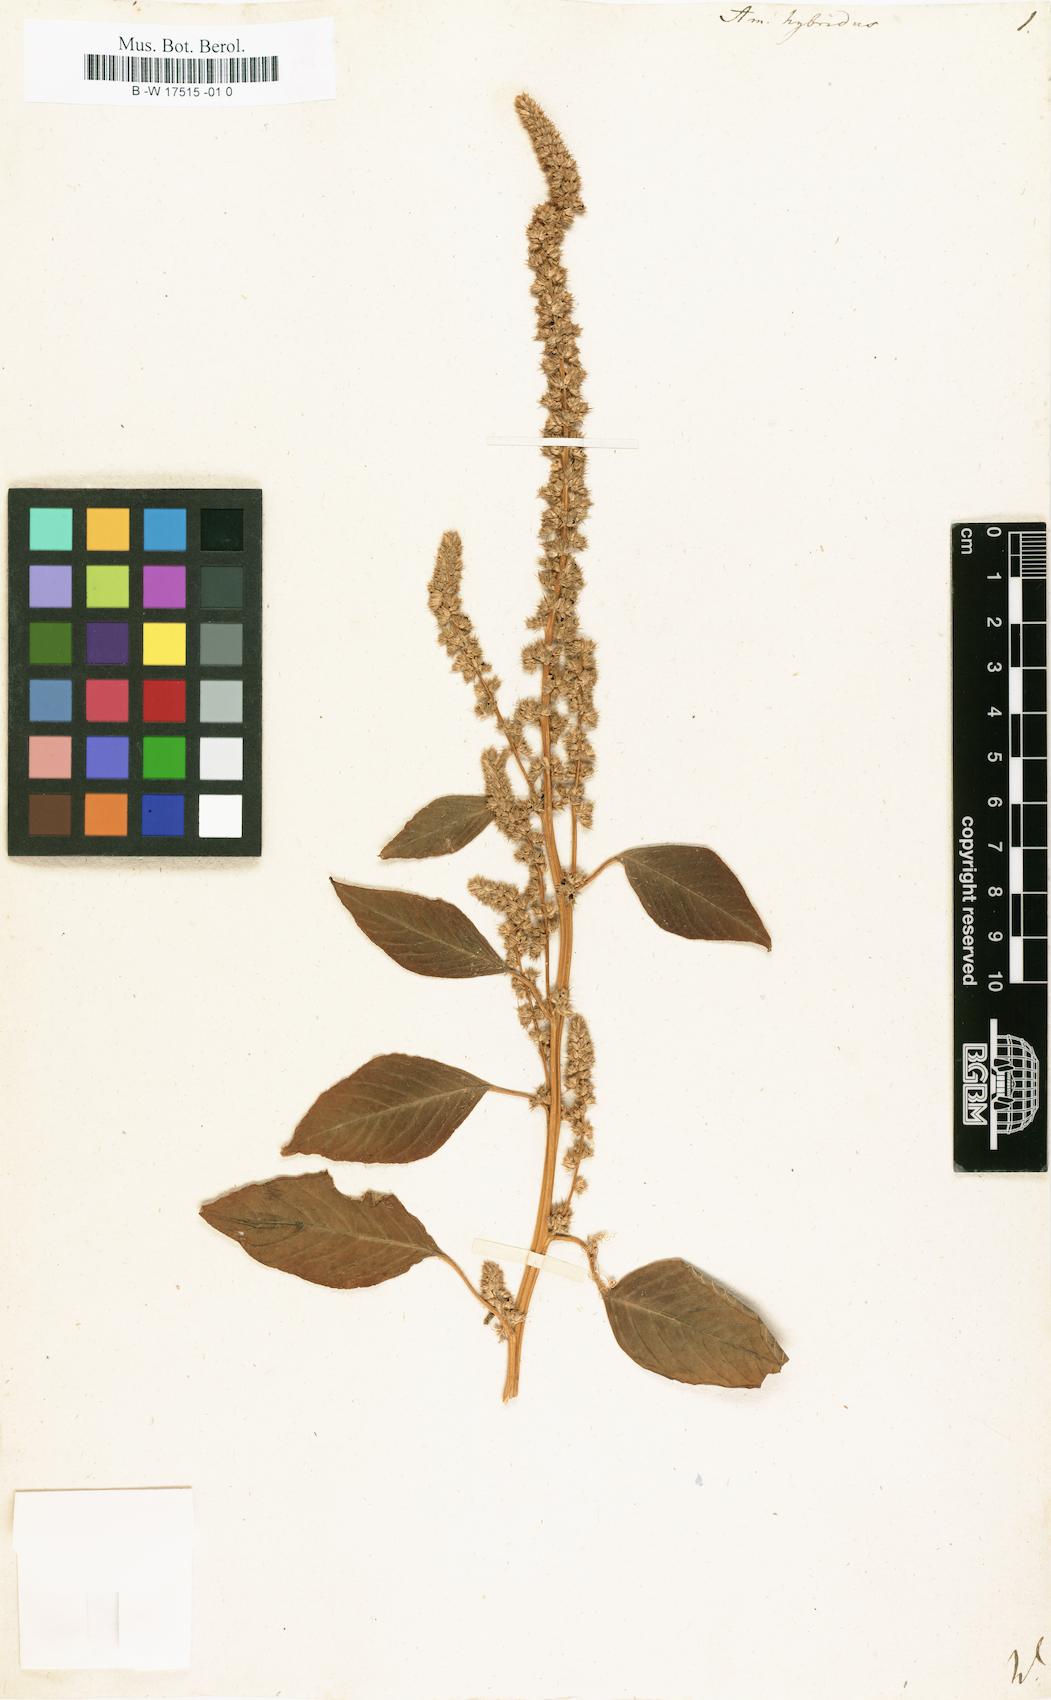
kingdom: Plantae
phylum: Tracheophyta
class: Magnoliopsida
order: Caryophyllales
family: Amaranthaceae
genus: Amaranthus
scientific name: Amaranthus hybridus
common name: Green amaranth
